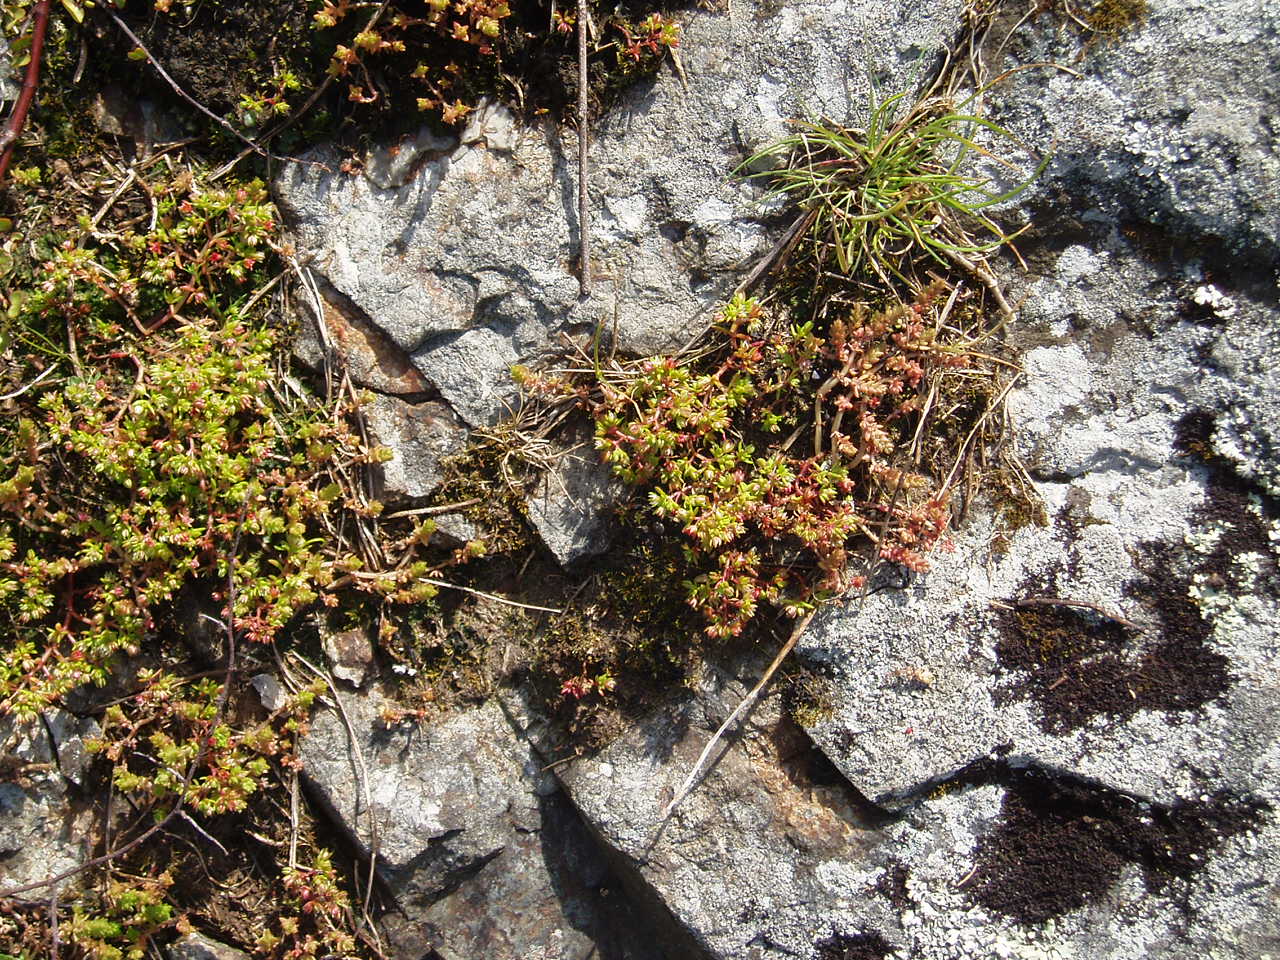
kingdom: Plantae
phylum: Tracheophyta
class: Magnoliopsida
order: Saxifragales
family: Crassulaceae
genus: Crassula
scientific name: Crassula decumbens
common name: Scilly pigmyweed
